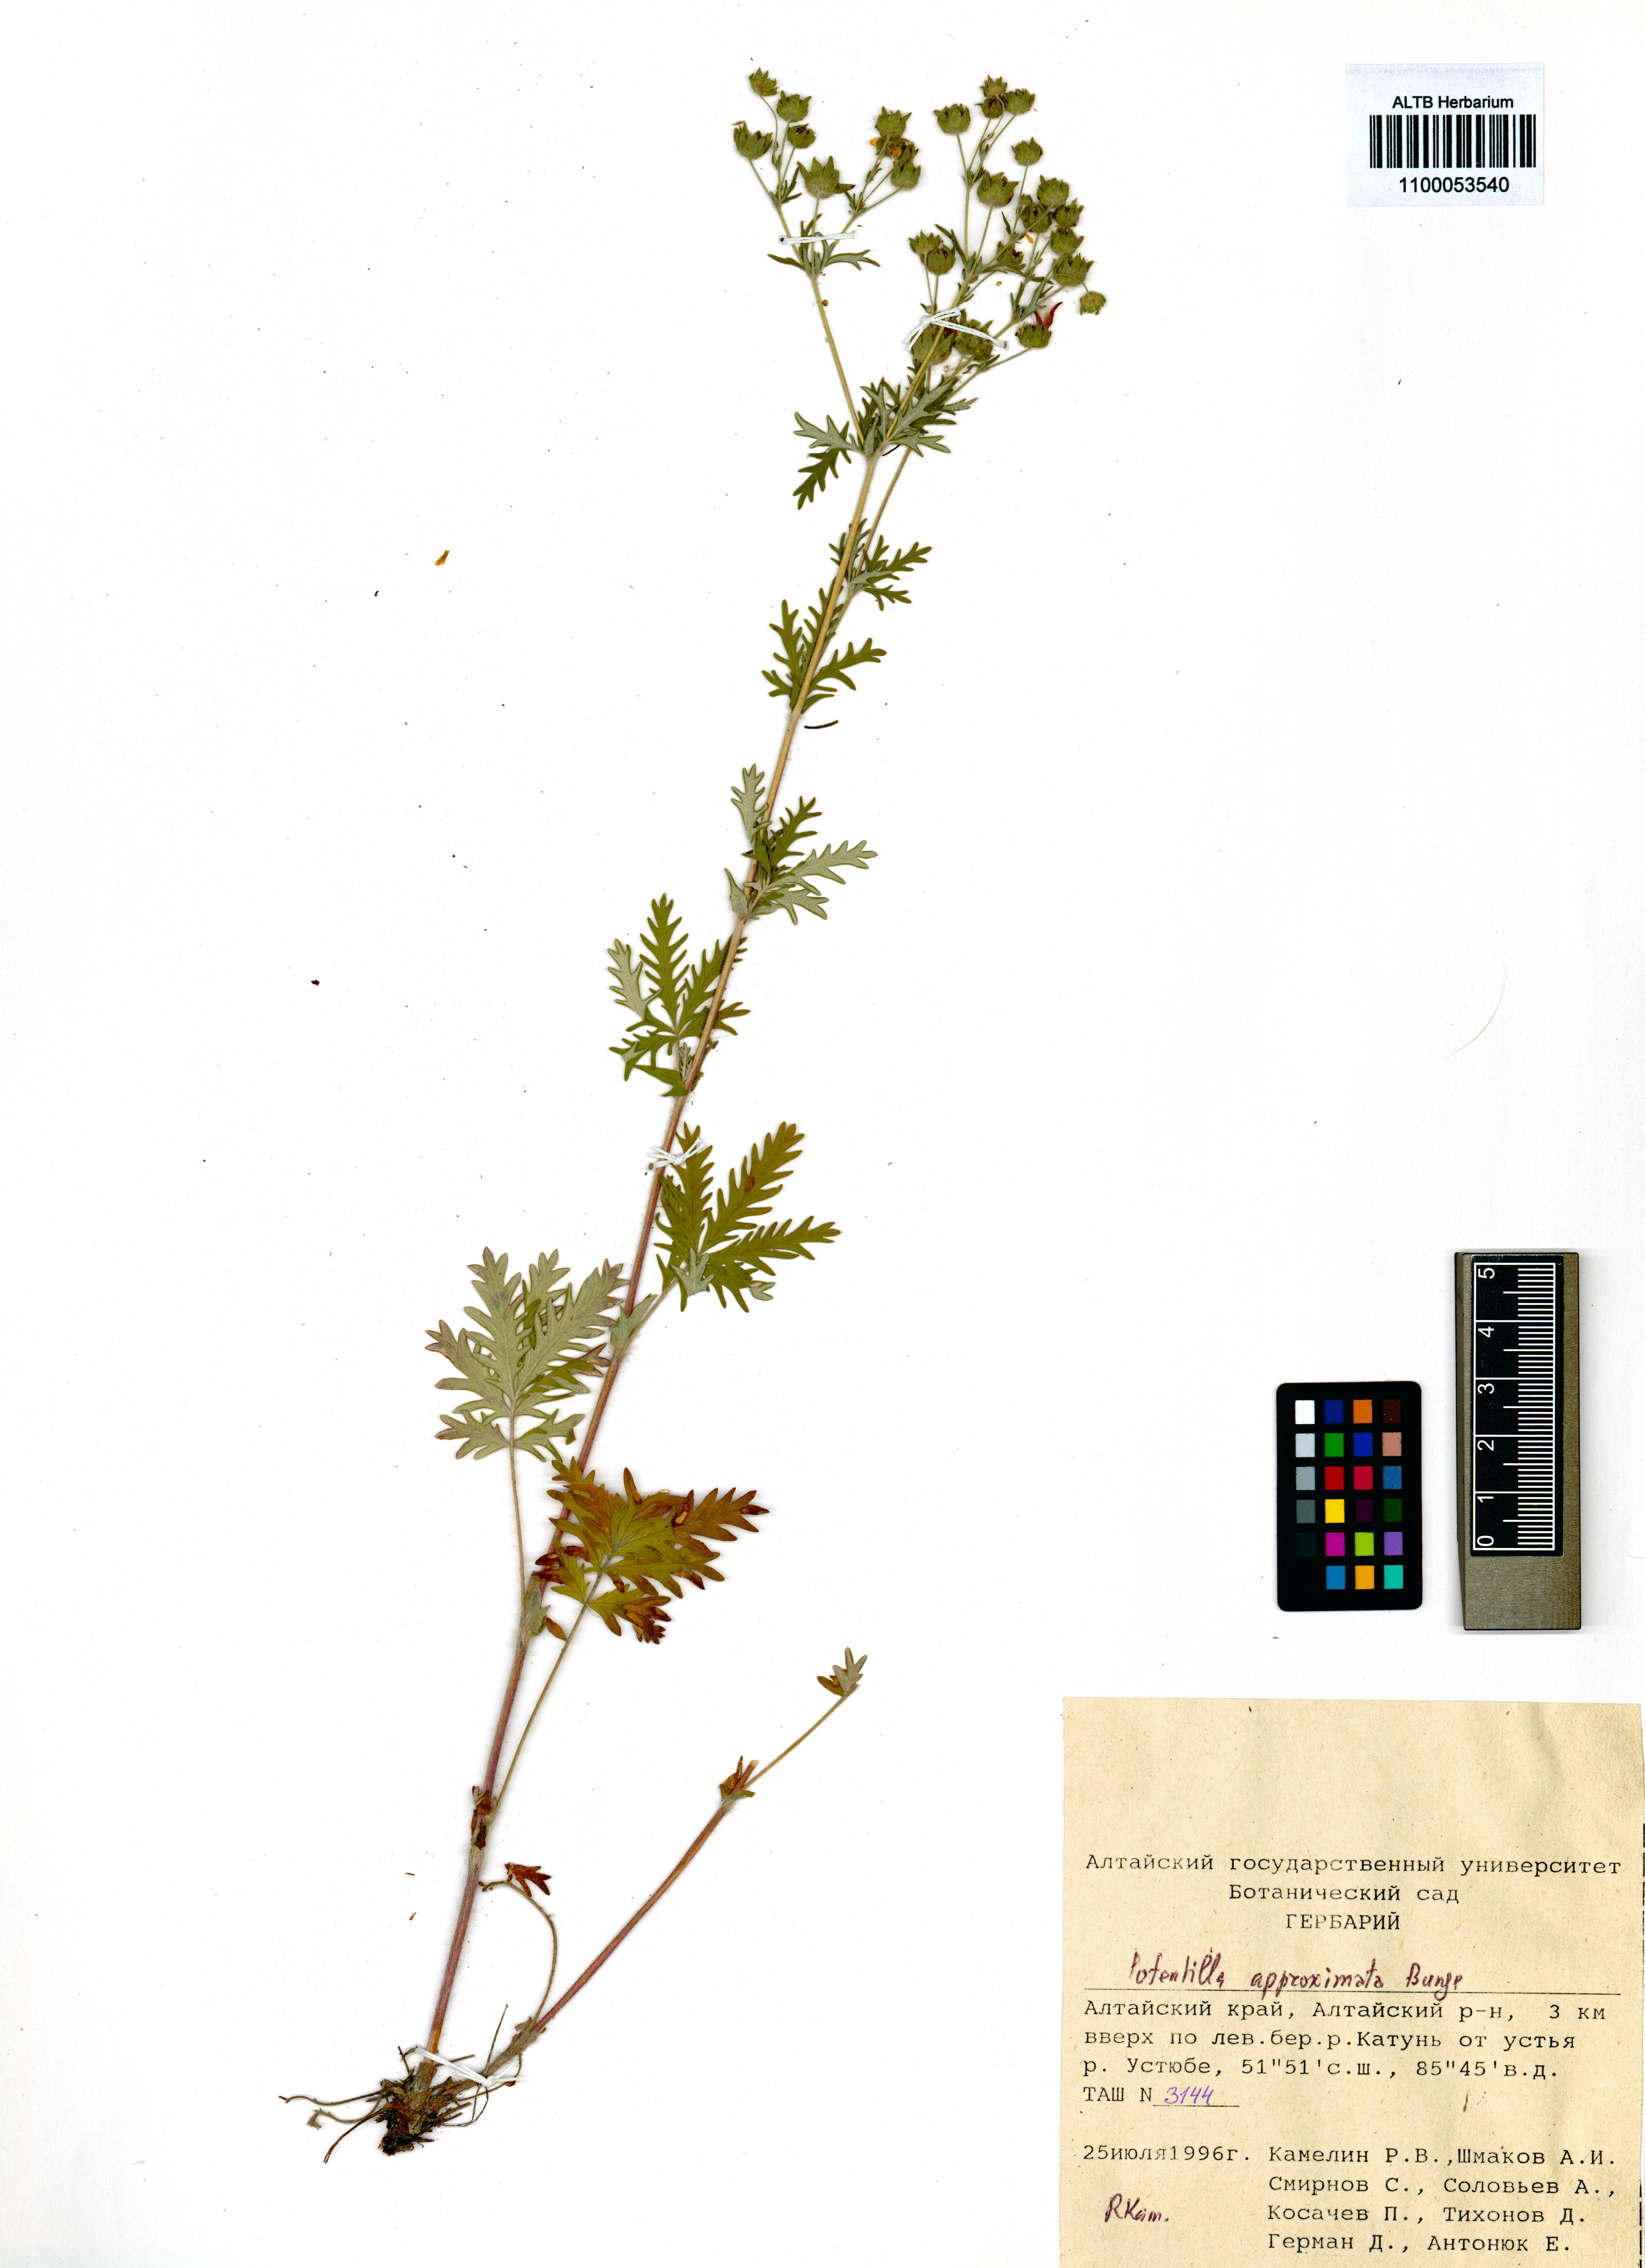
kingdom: Plantae
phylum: Tracheophyta
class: Magnoliopsida
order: Rosales
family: Rosaceae
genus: Potentilla
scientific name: Potentilla conferta
